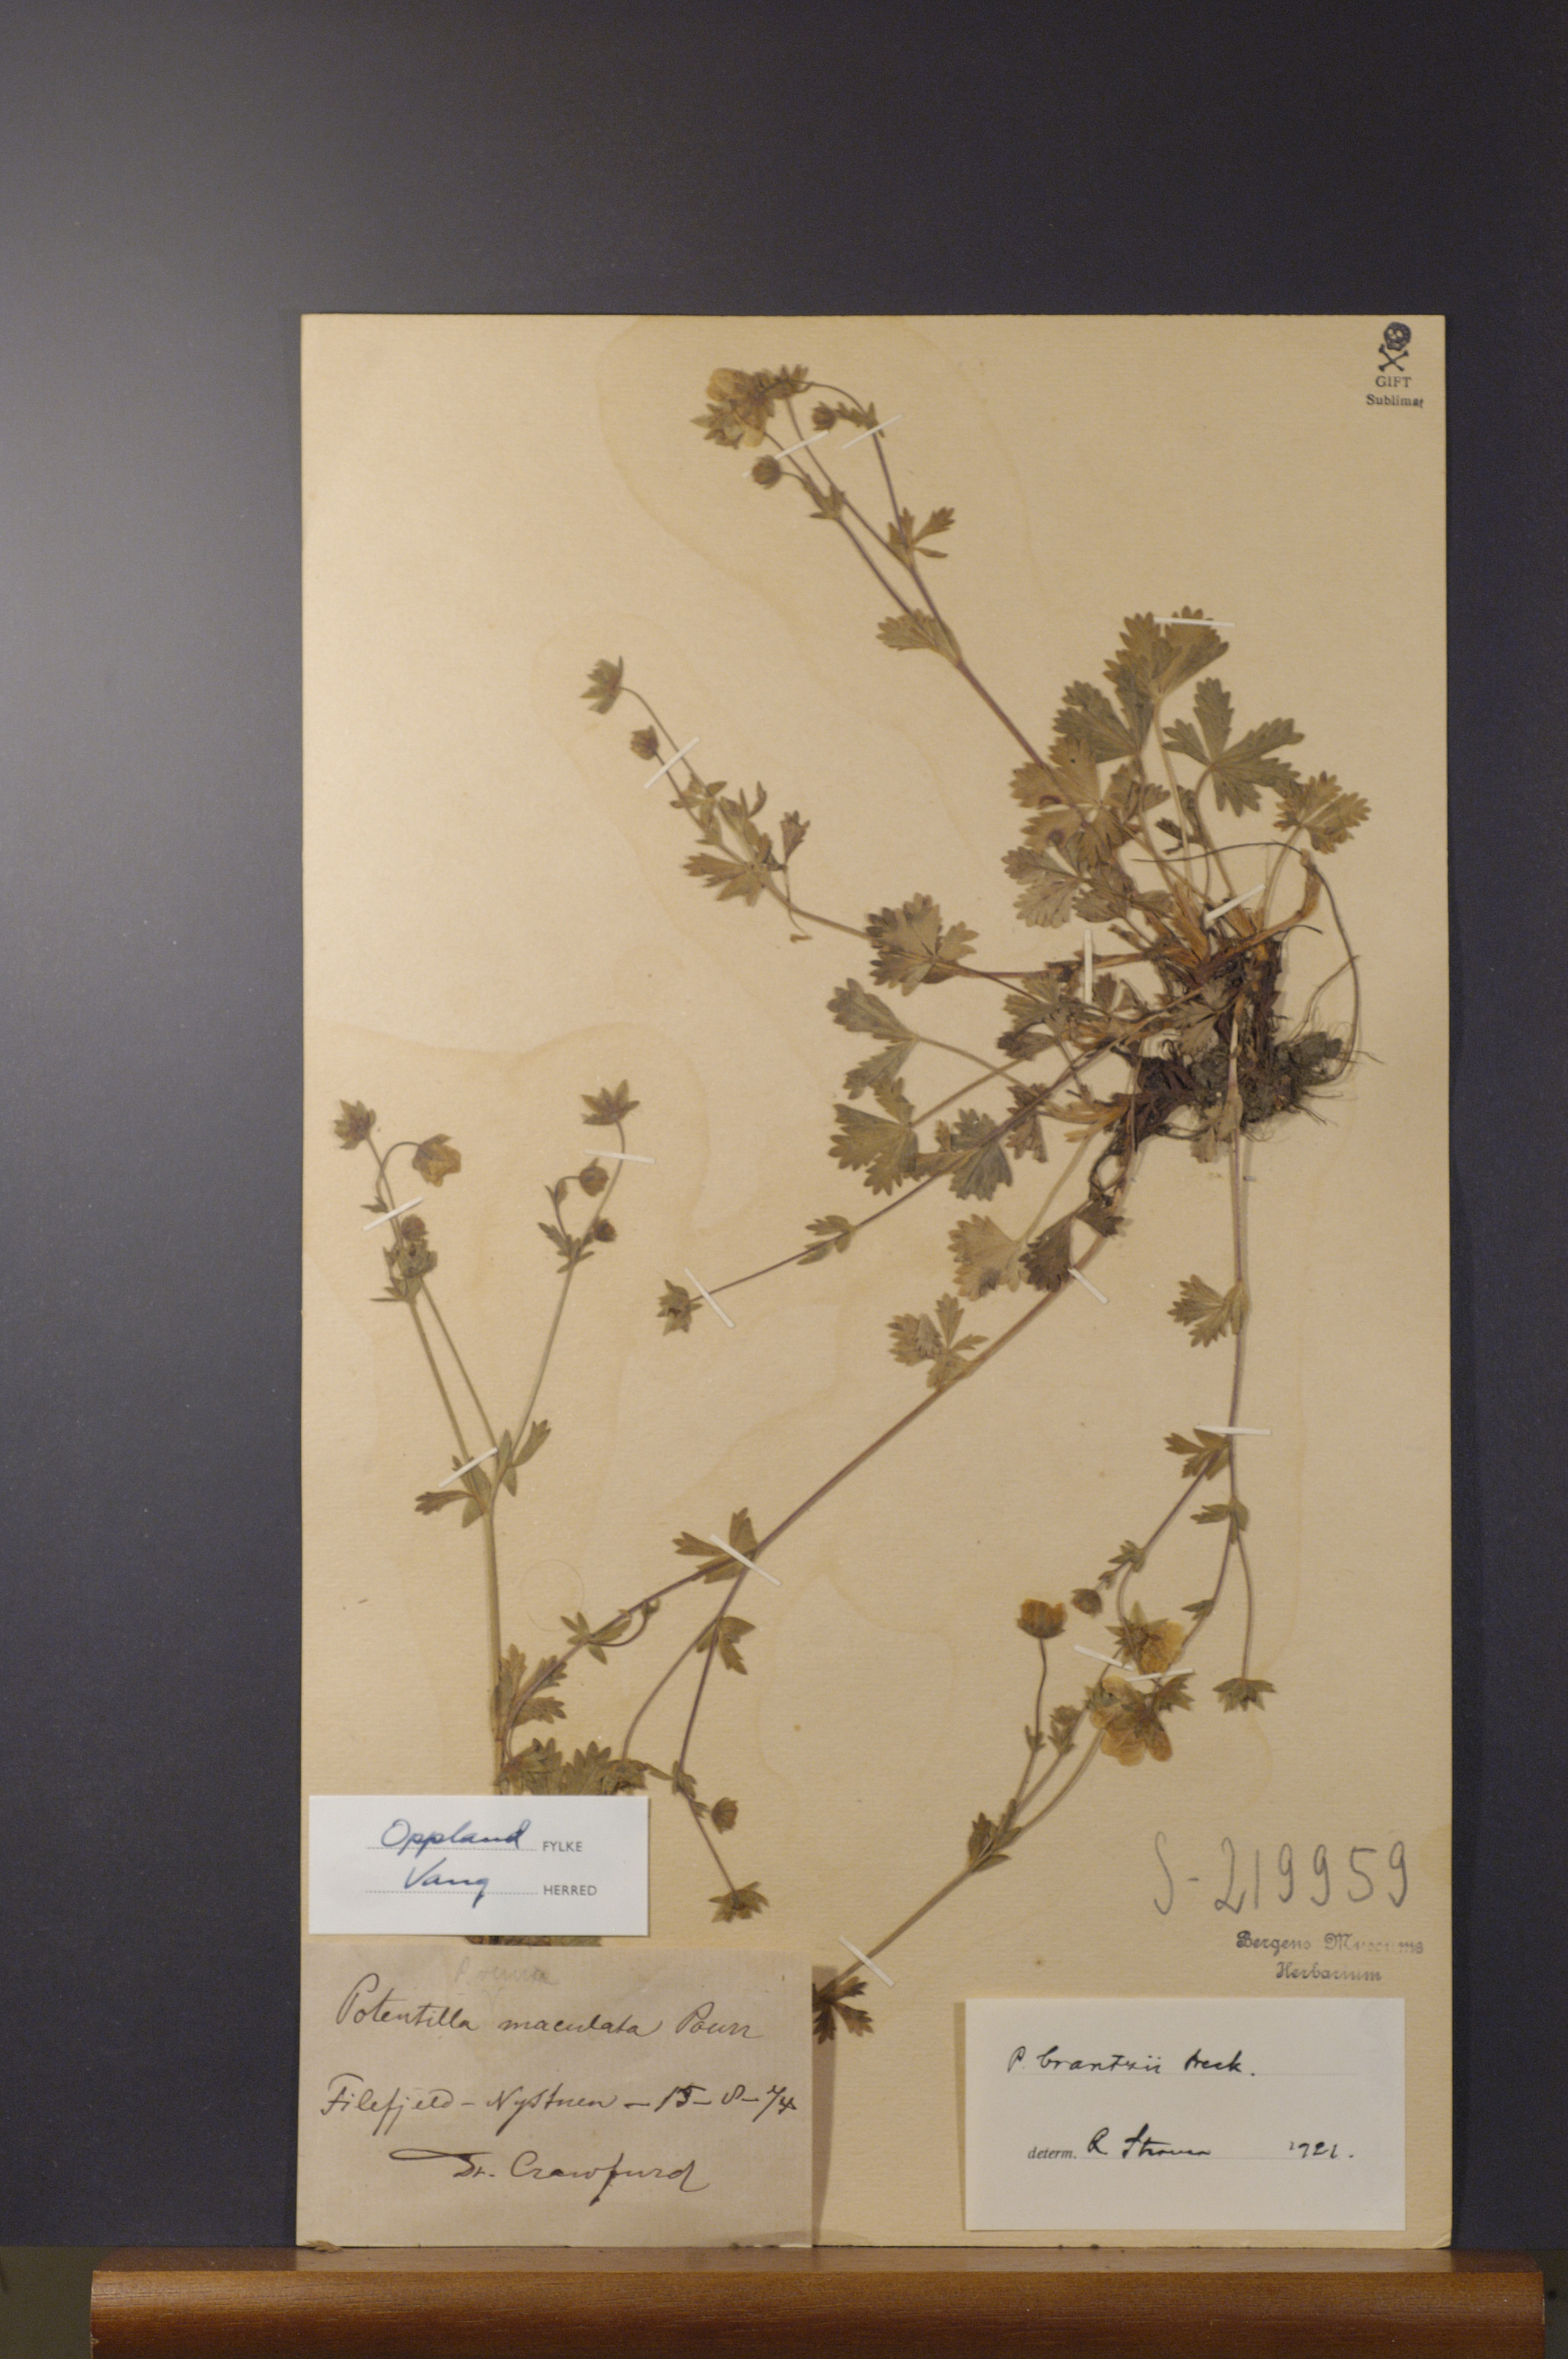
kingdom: Plantae
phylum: Tracheophyta
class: Magnoliopsida
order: Rosales
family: Rosaceae
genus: Potentilla
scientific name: Potentilla crantzii
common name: Alpine cinquefoil
